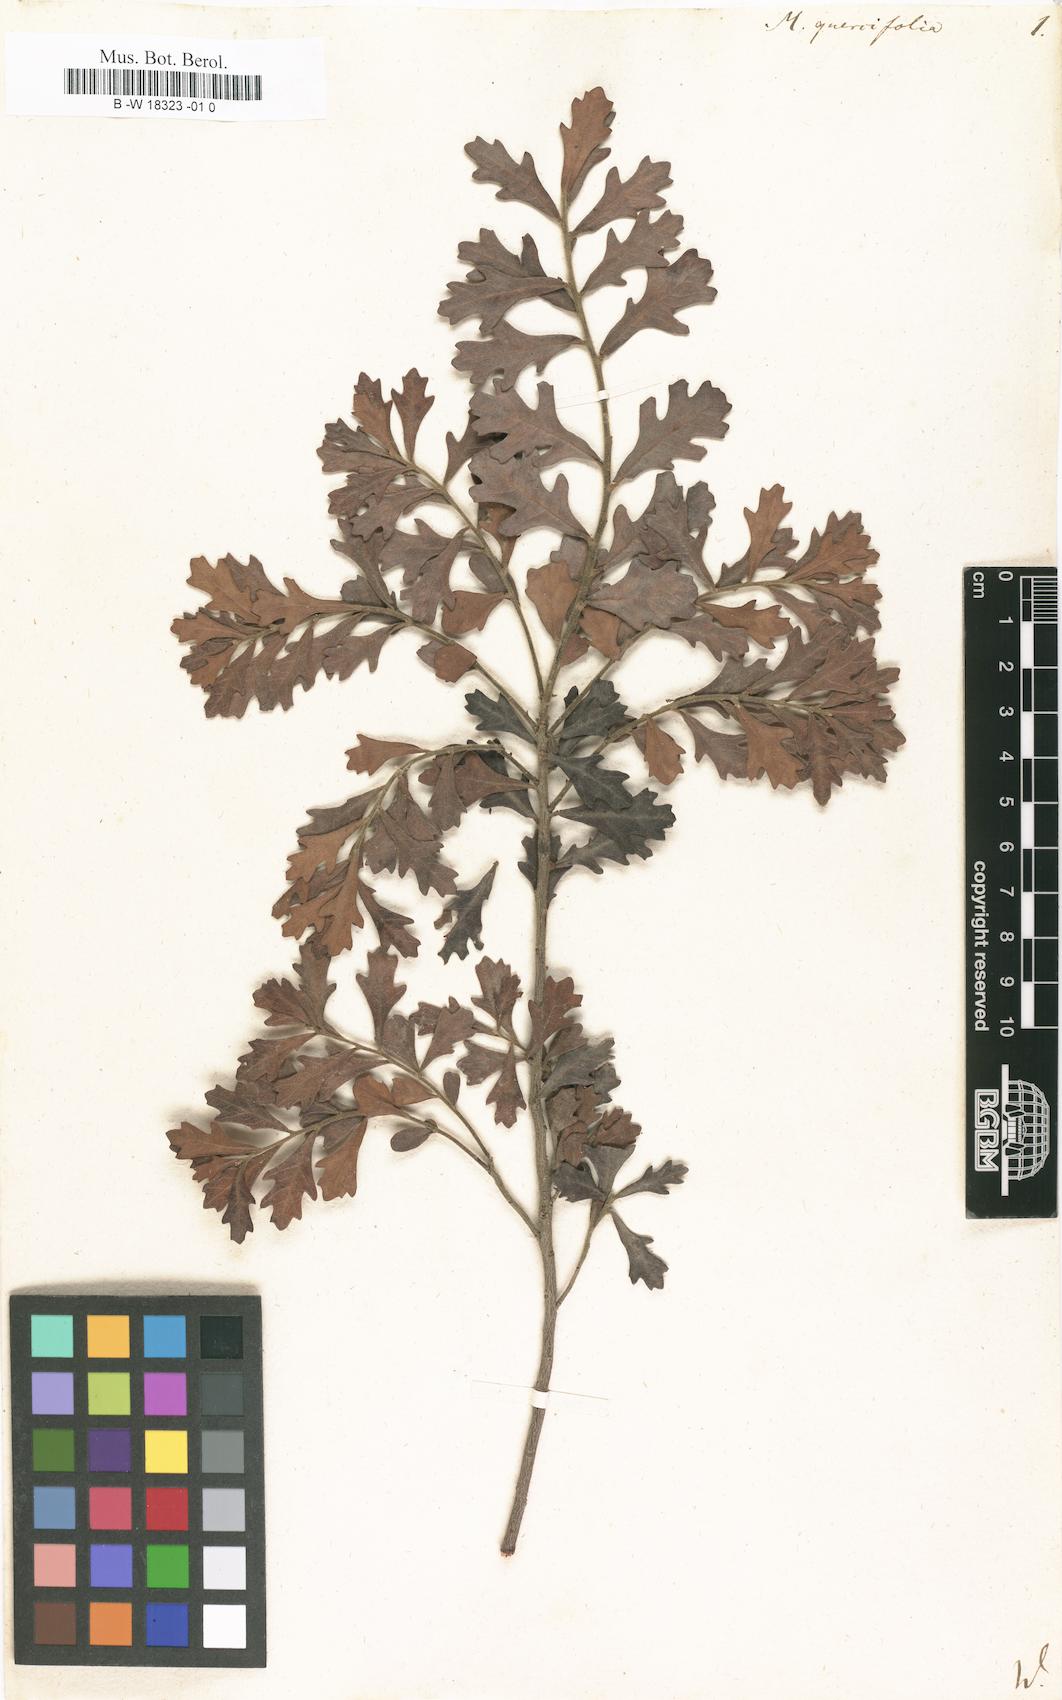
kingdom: Plantae
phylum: Tracheophyta
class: Magnoliopsida
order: Fagales
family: Myricaceae
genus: Morella
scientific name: Morella quercifolia
